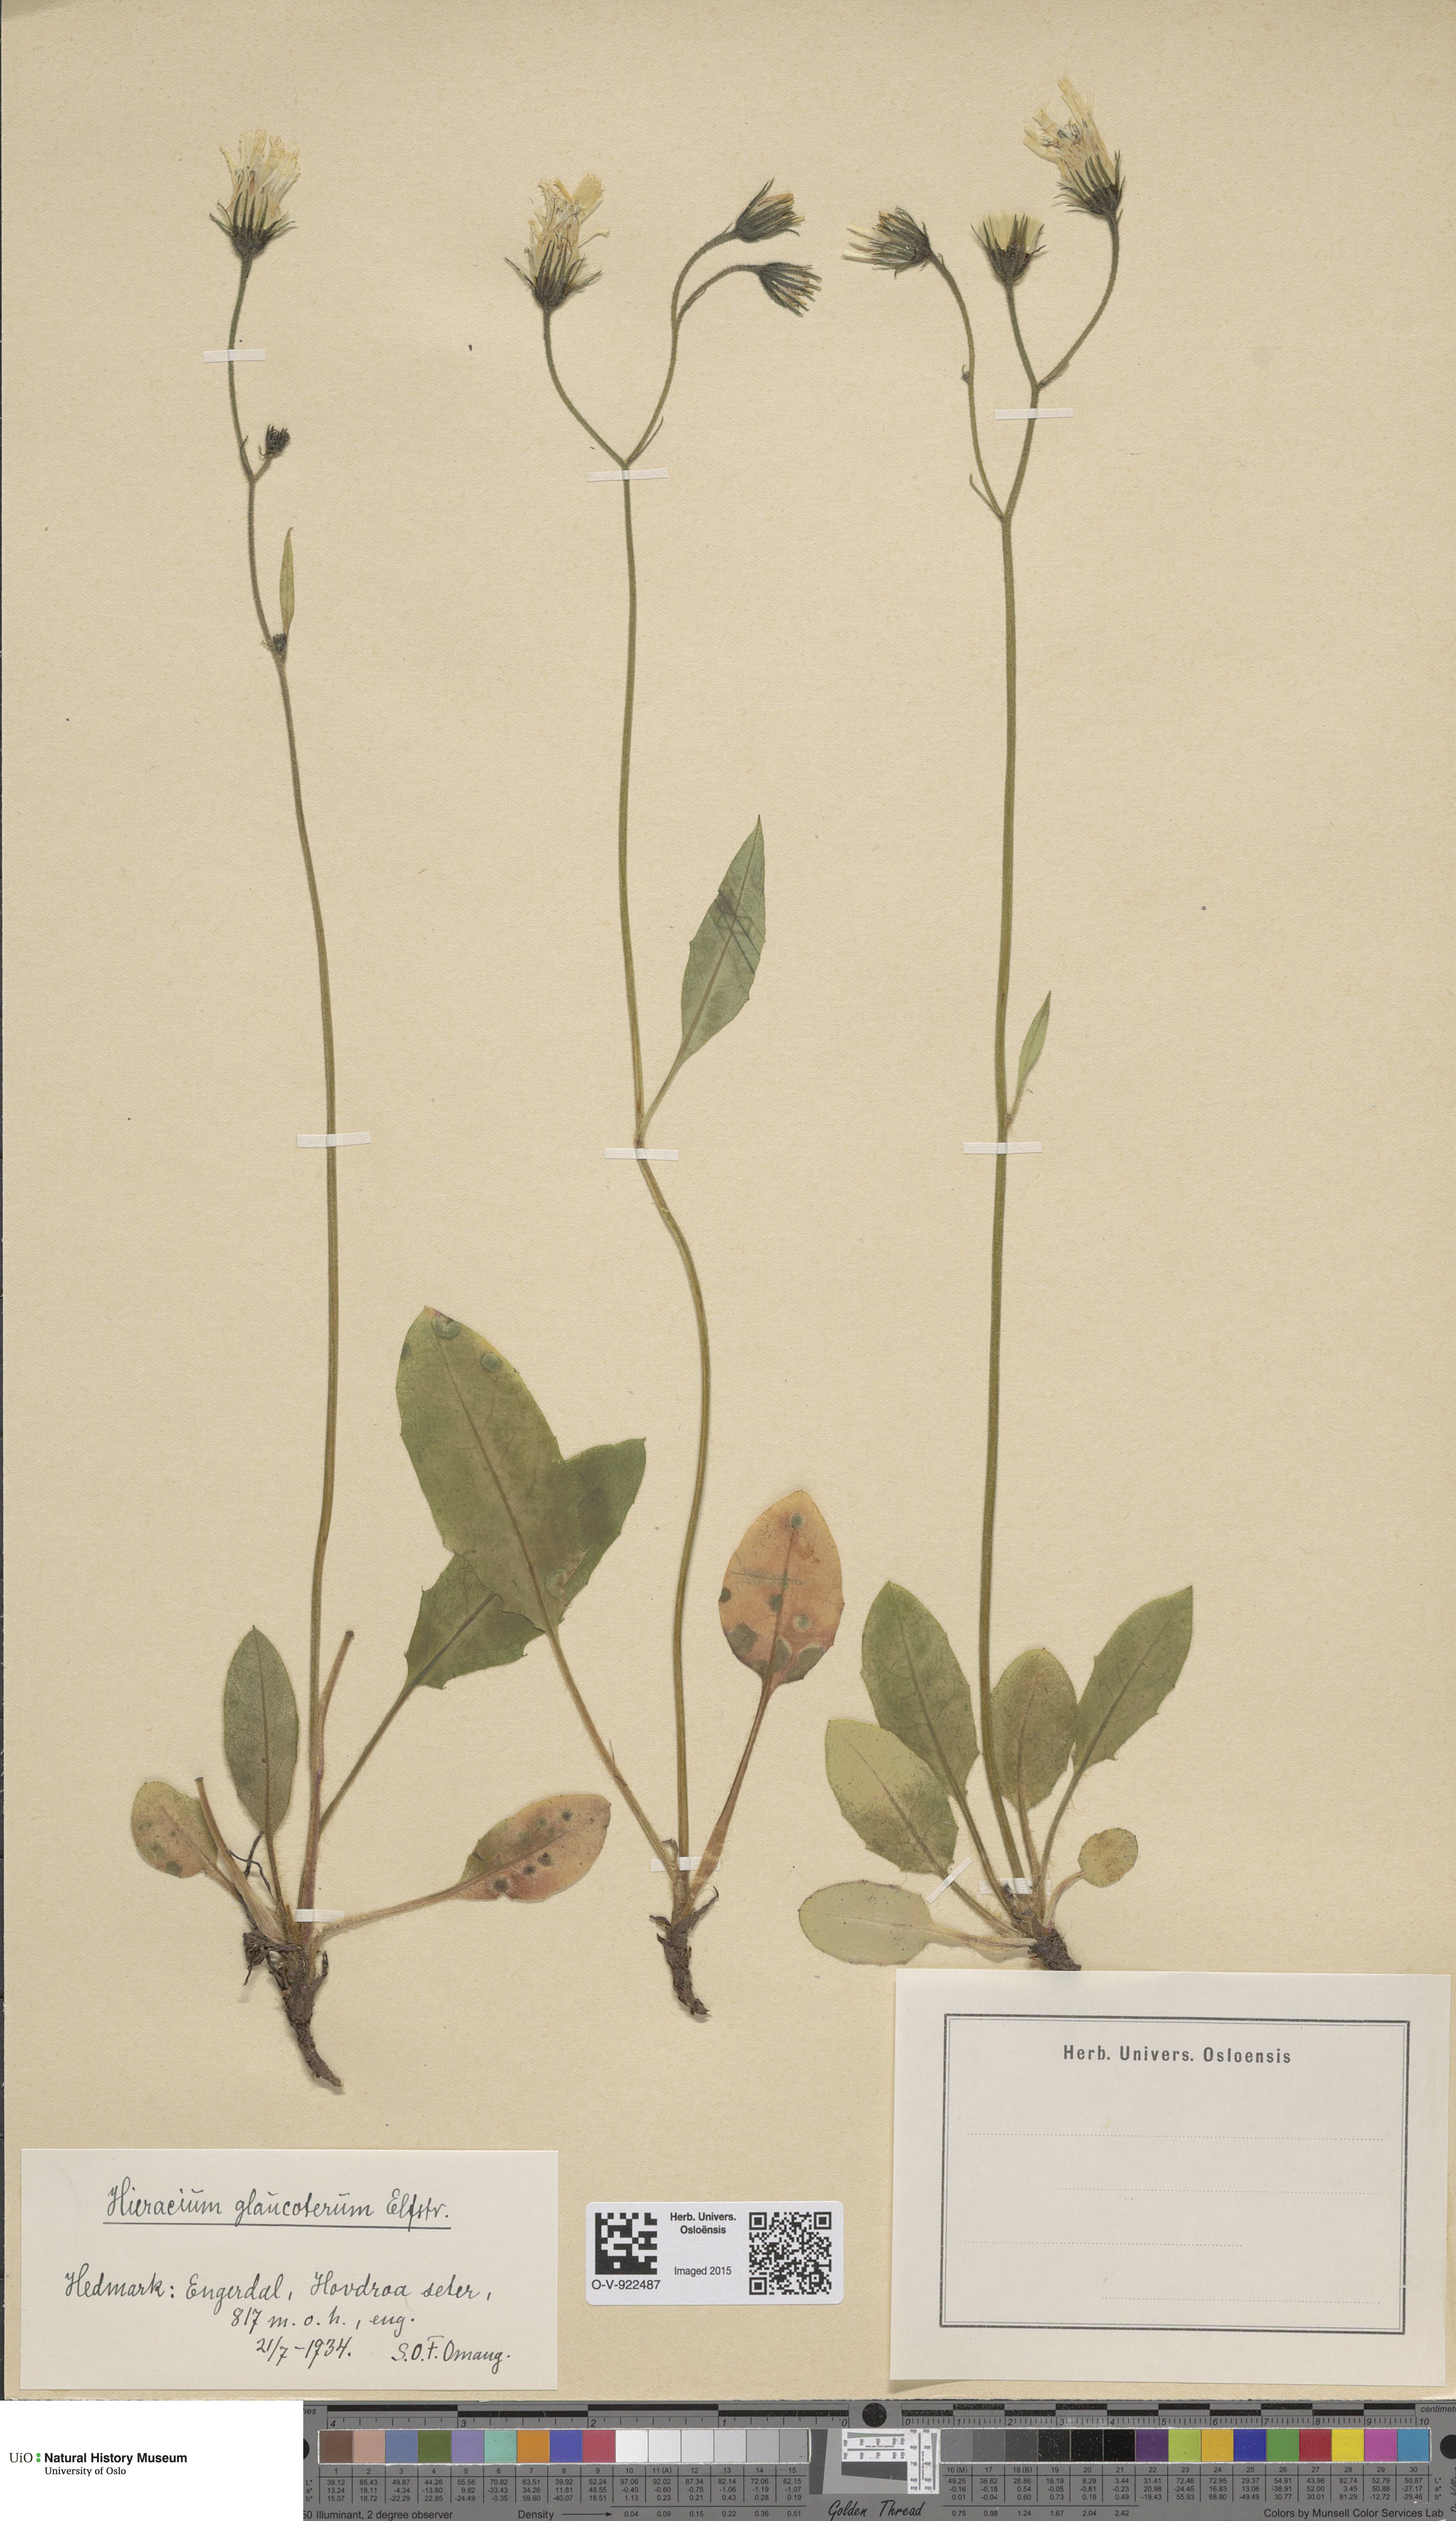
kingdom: Plantae
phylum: Tracheophyta
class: Magnoliopsida
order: Asterales
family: Asteraceae
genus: Hieracium
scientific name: Hieracium
